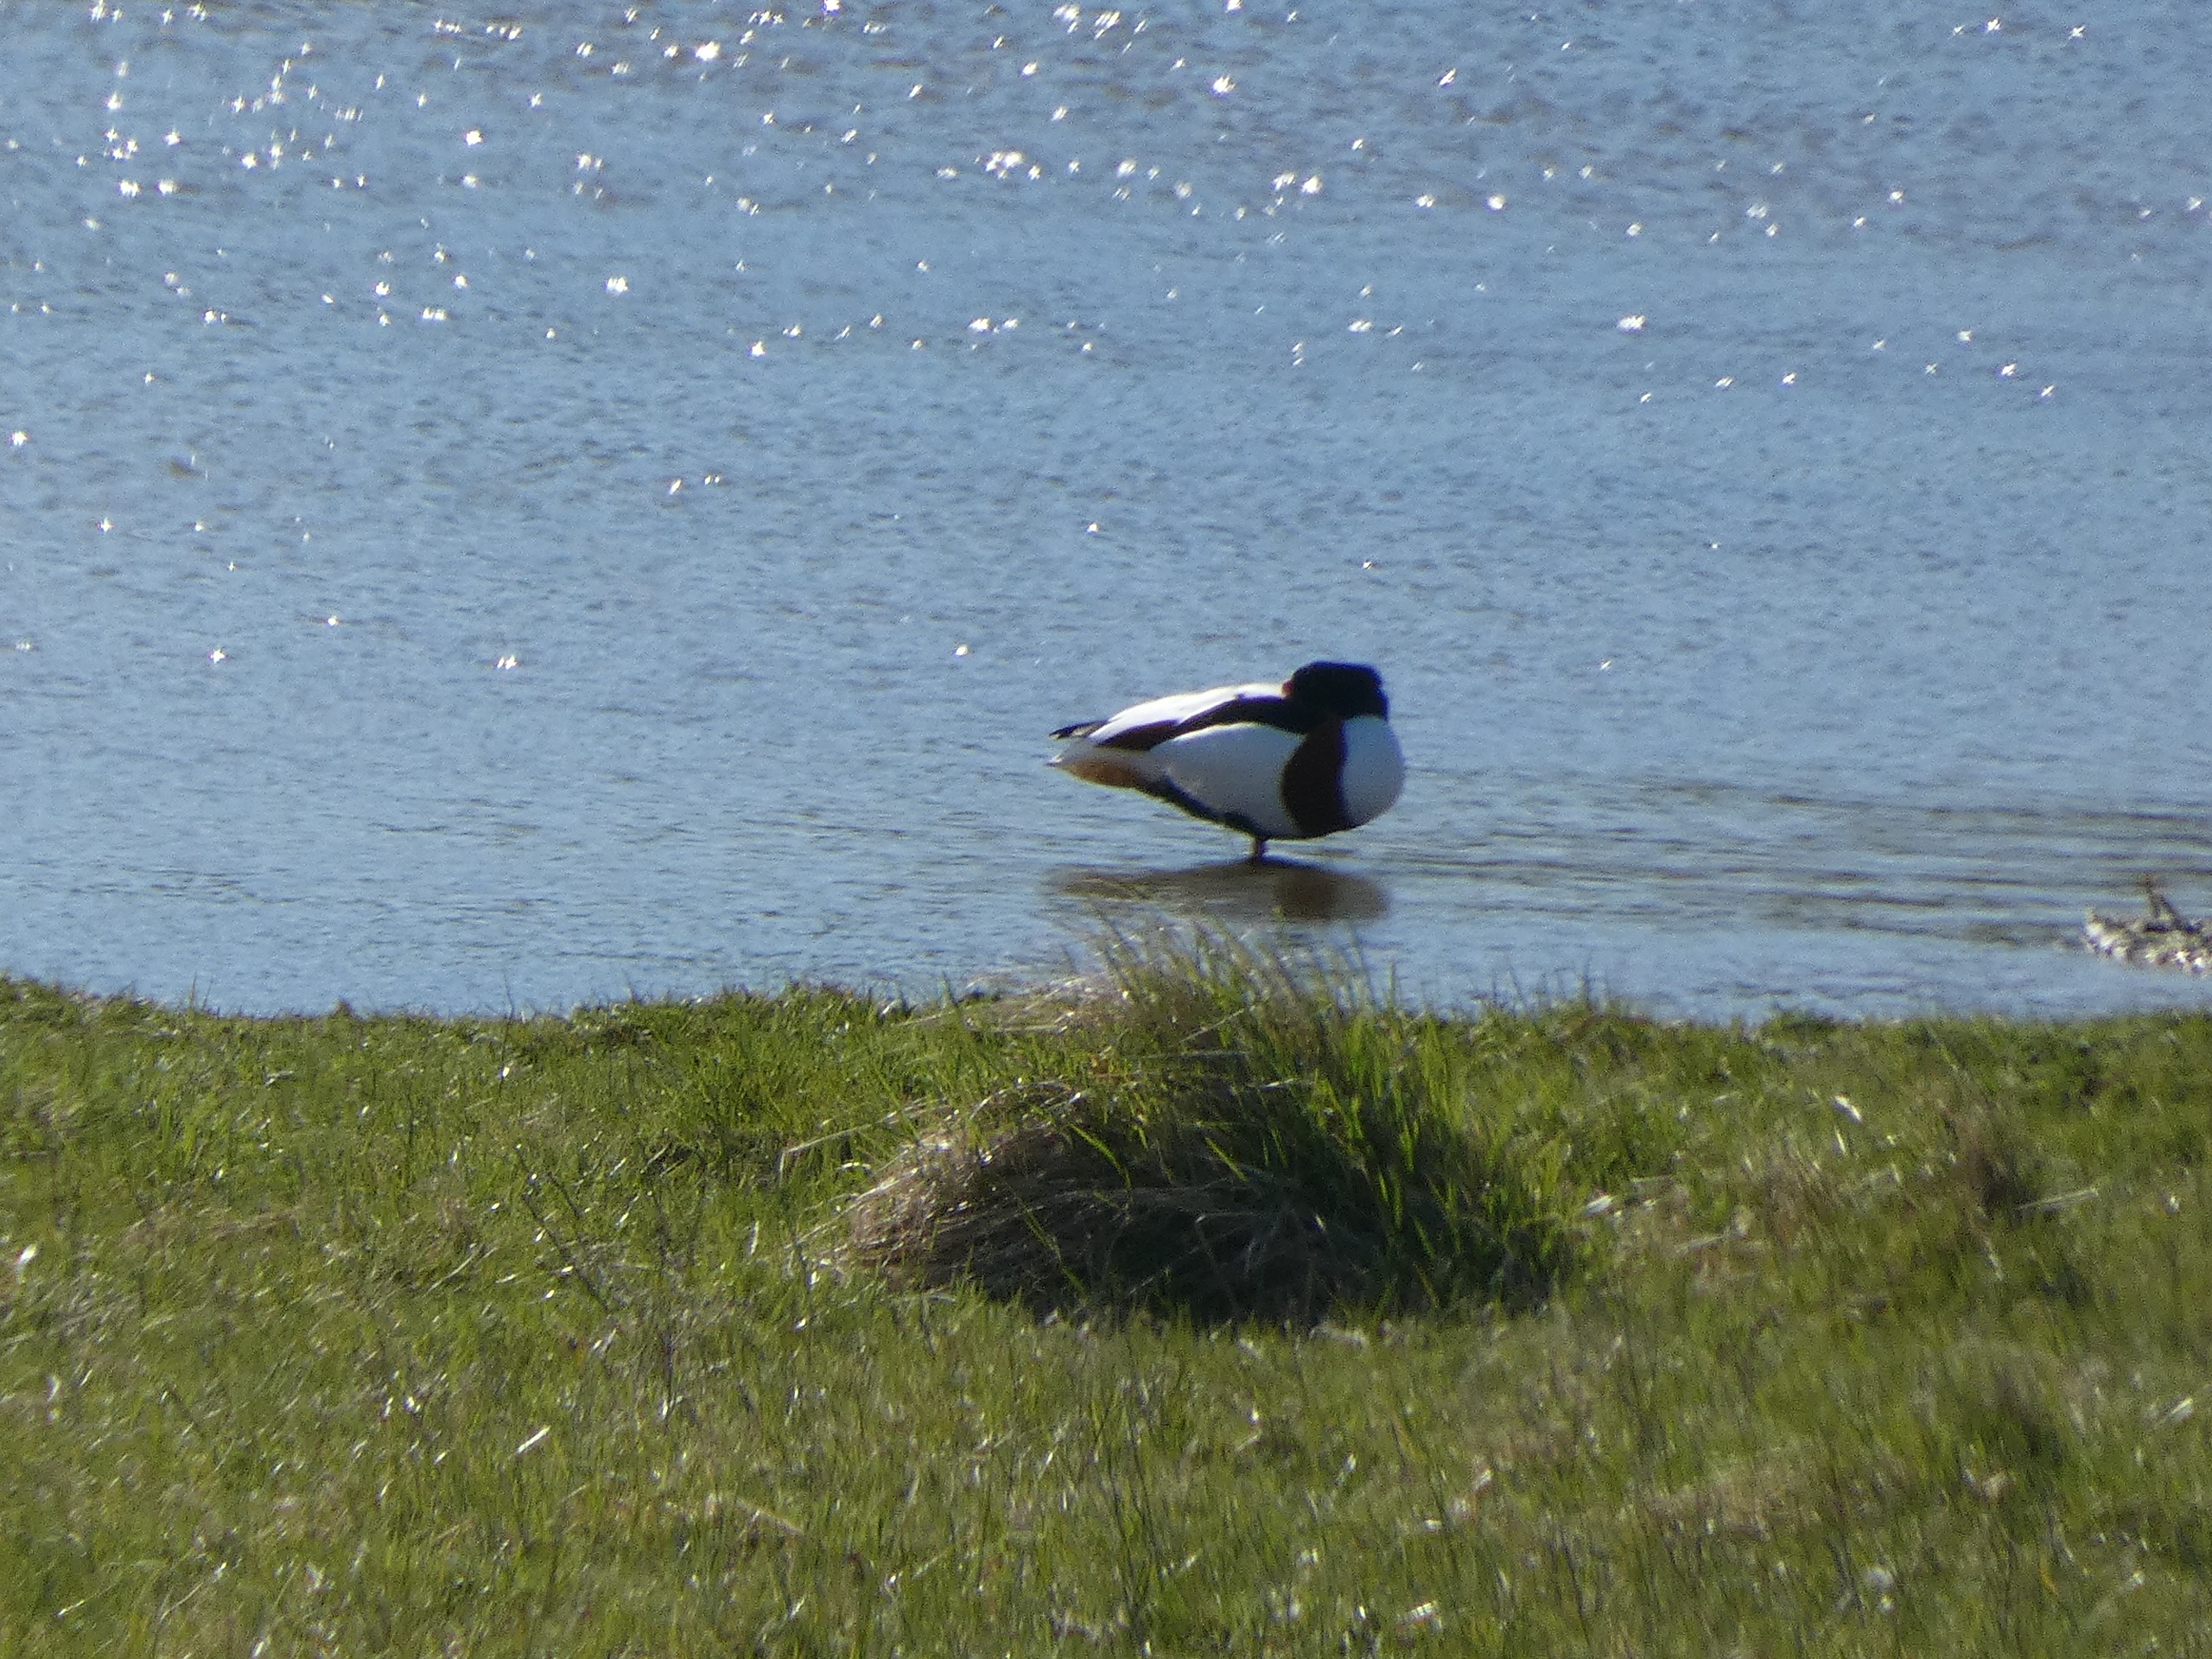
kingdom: Animalia
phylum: Chordata
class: Aves
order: Anseriformes
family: Anatidae
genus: Tadorna
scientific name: Tadorna tadorna
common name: Gravand
